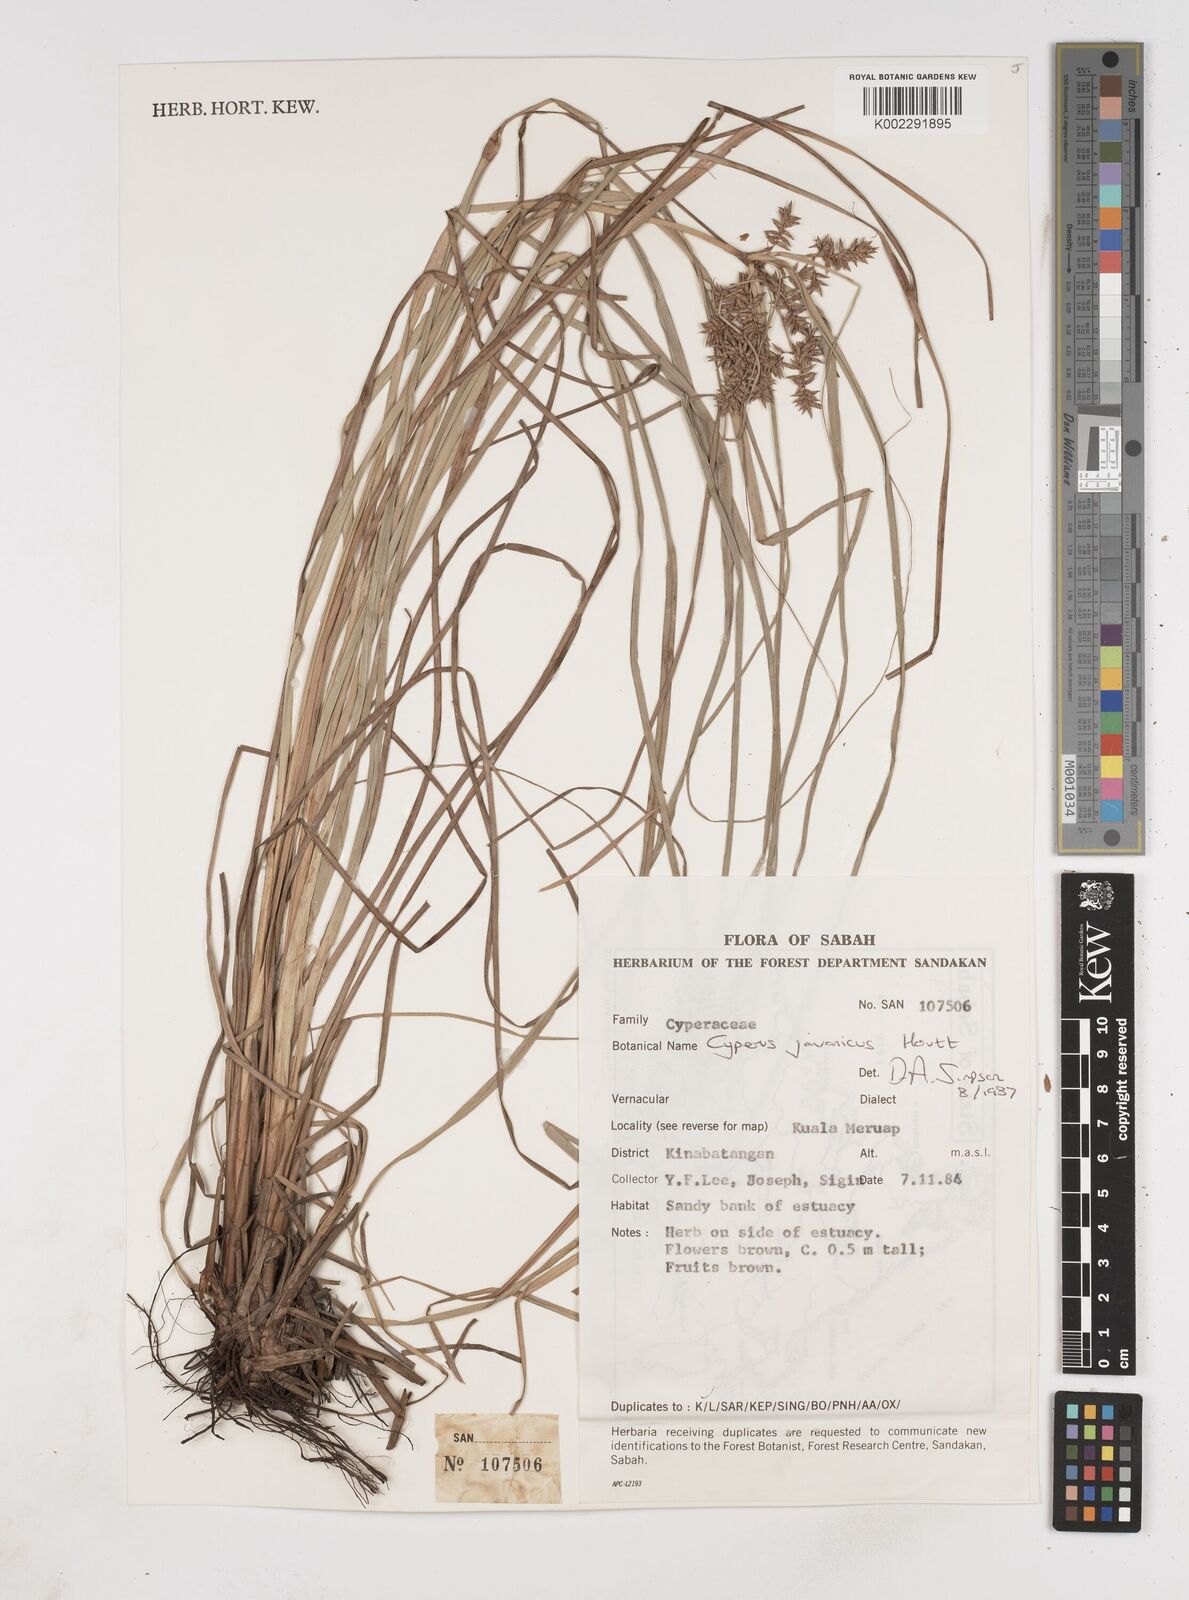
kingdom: Plantae
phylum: Tracheophyta
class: Liliopsida
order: Poales
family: Cyperaceae
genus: Cyperus
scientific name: Cyperus javanicus
